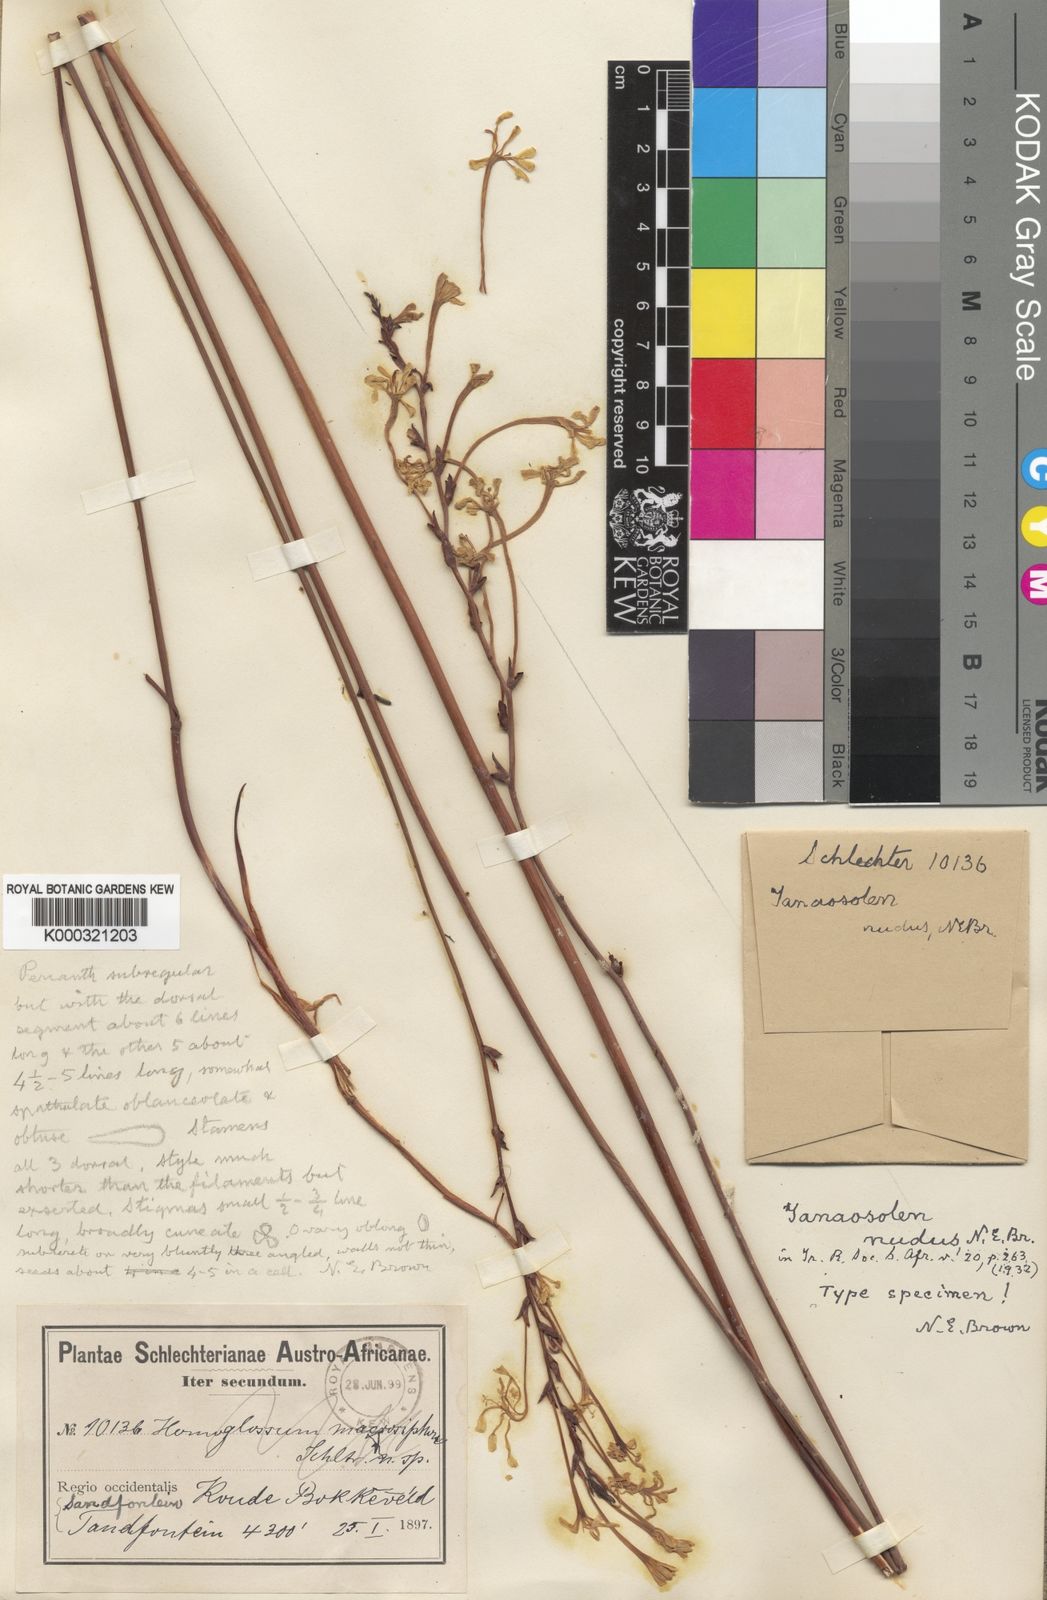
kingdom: Plantae
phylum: Tracheophyta
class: Liliopsida
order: Asparagales
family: Iridaceae
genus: Tritoniopsis
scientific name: Tritoniopsis
